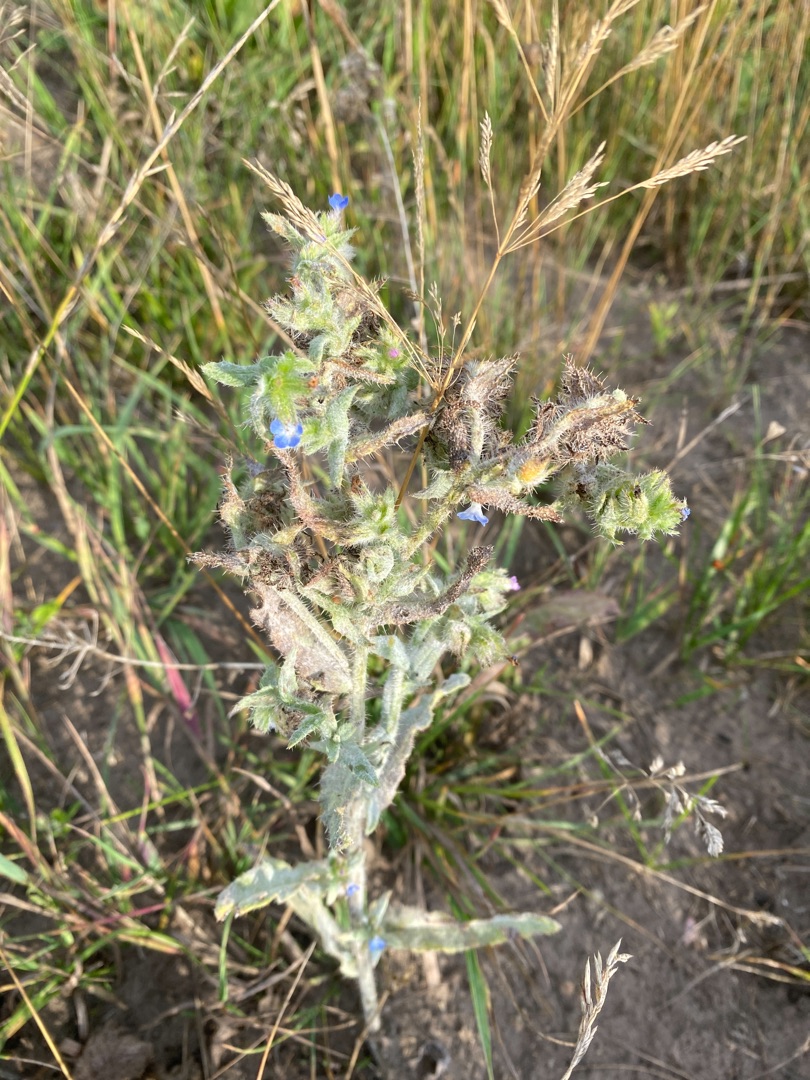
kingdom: Plantae
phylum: Tracheophyta
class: Magnoliopsida
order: Boraginales
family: Boraginaceae
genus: Lycopsis
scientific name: Lycopsis arvensis
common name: Krumhals
